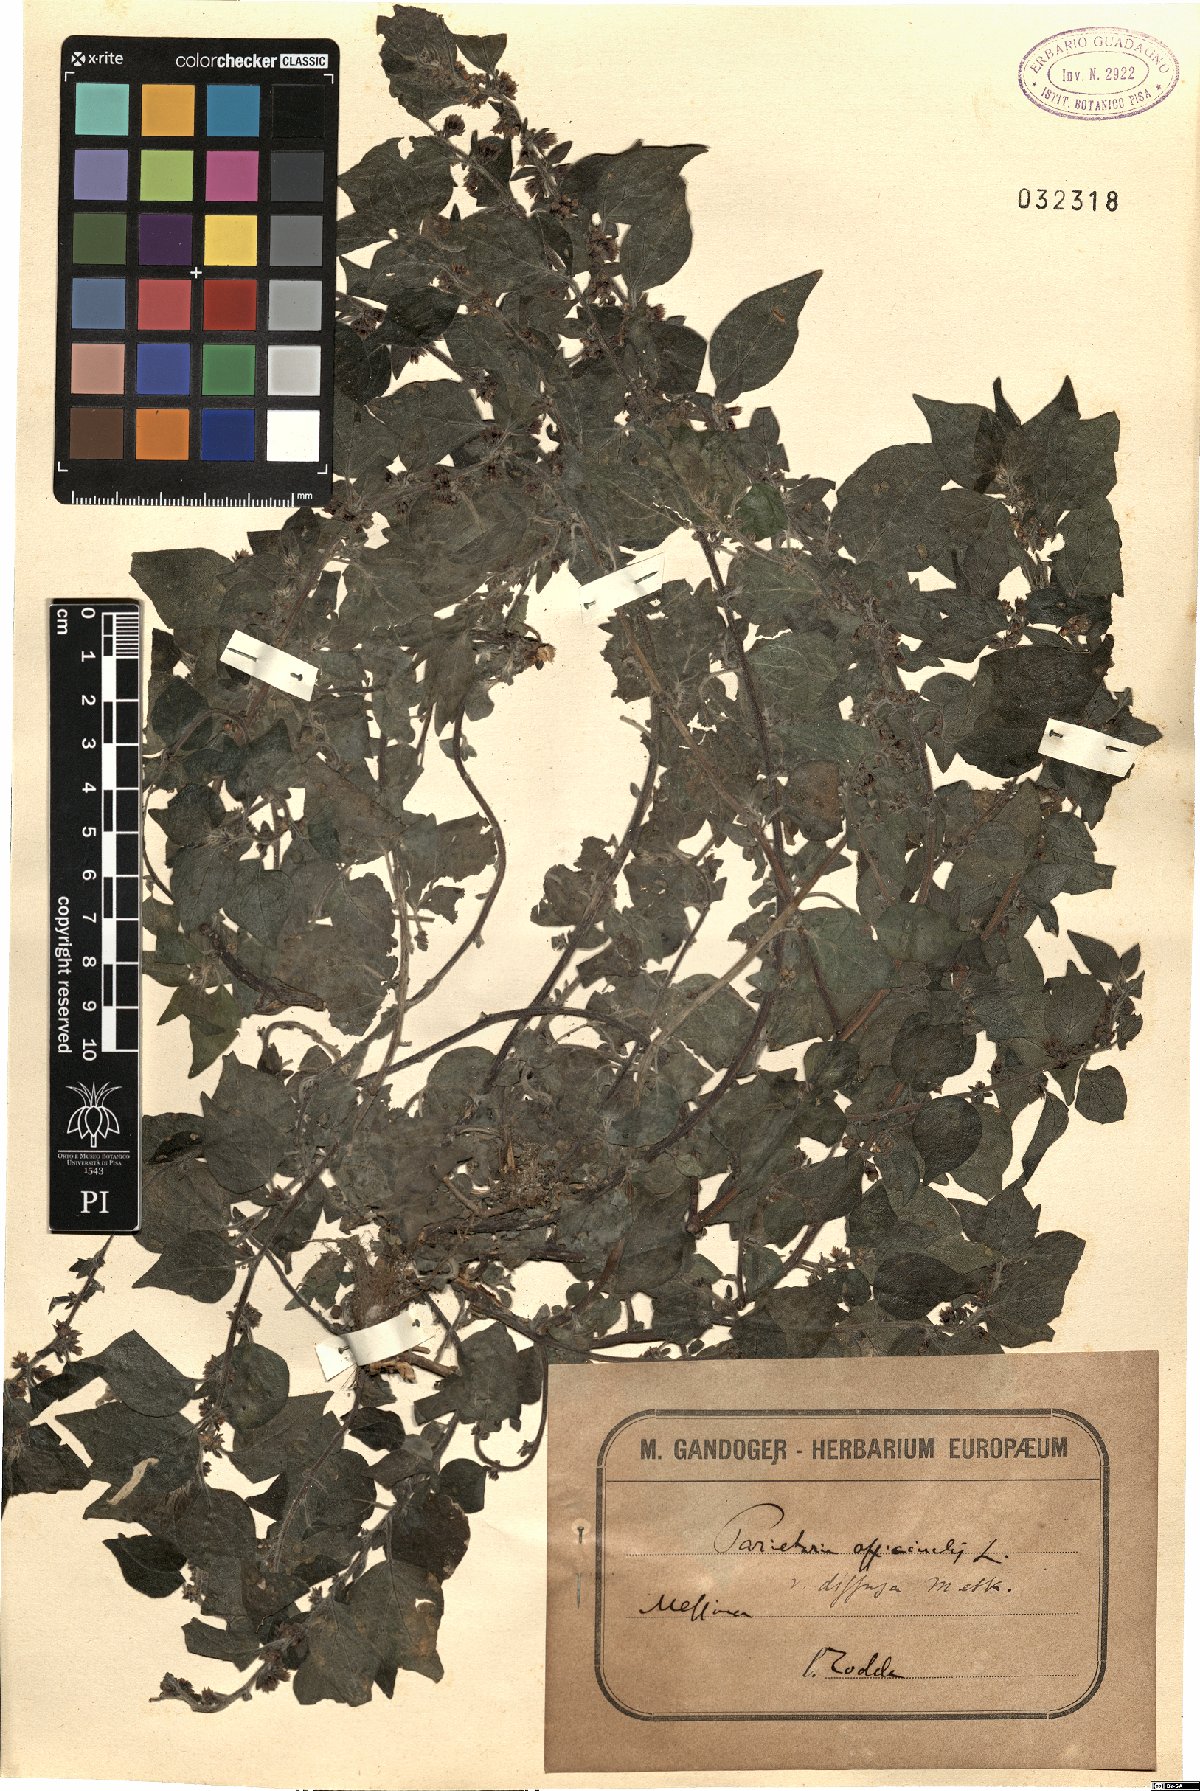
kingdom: Plantae
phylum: Tracheophyta
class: Magnoliopsida
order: Rosales
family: Urticaceae
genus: Parietaria
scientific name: Parietaria judaica
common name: Pellitory-of-the-wall
